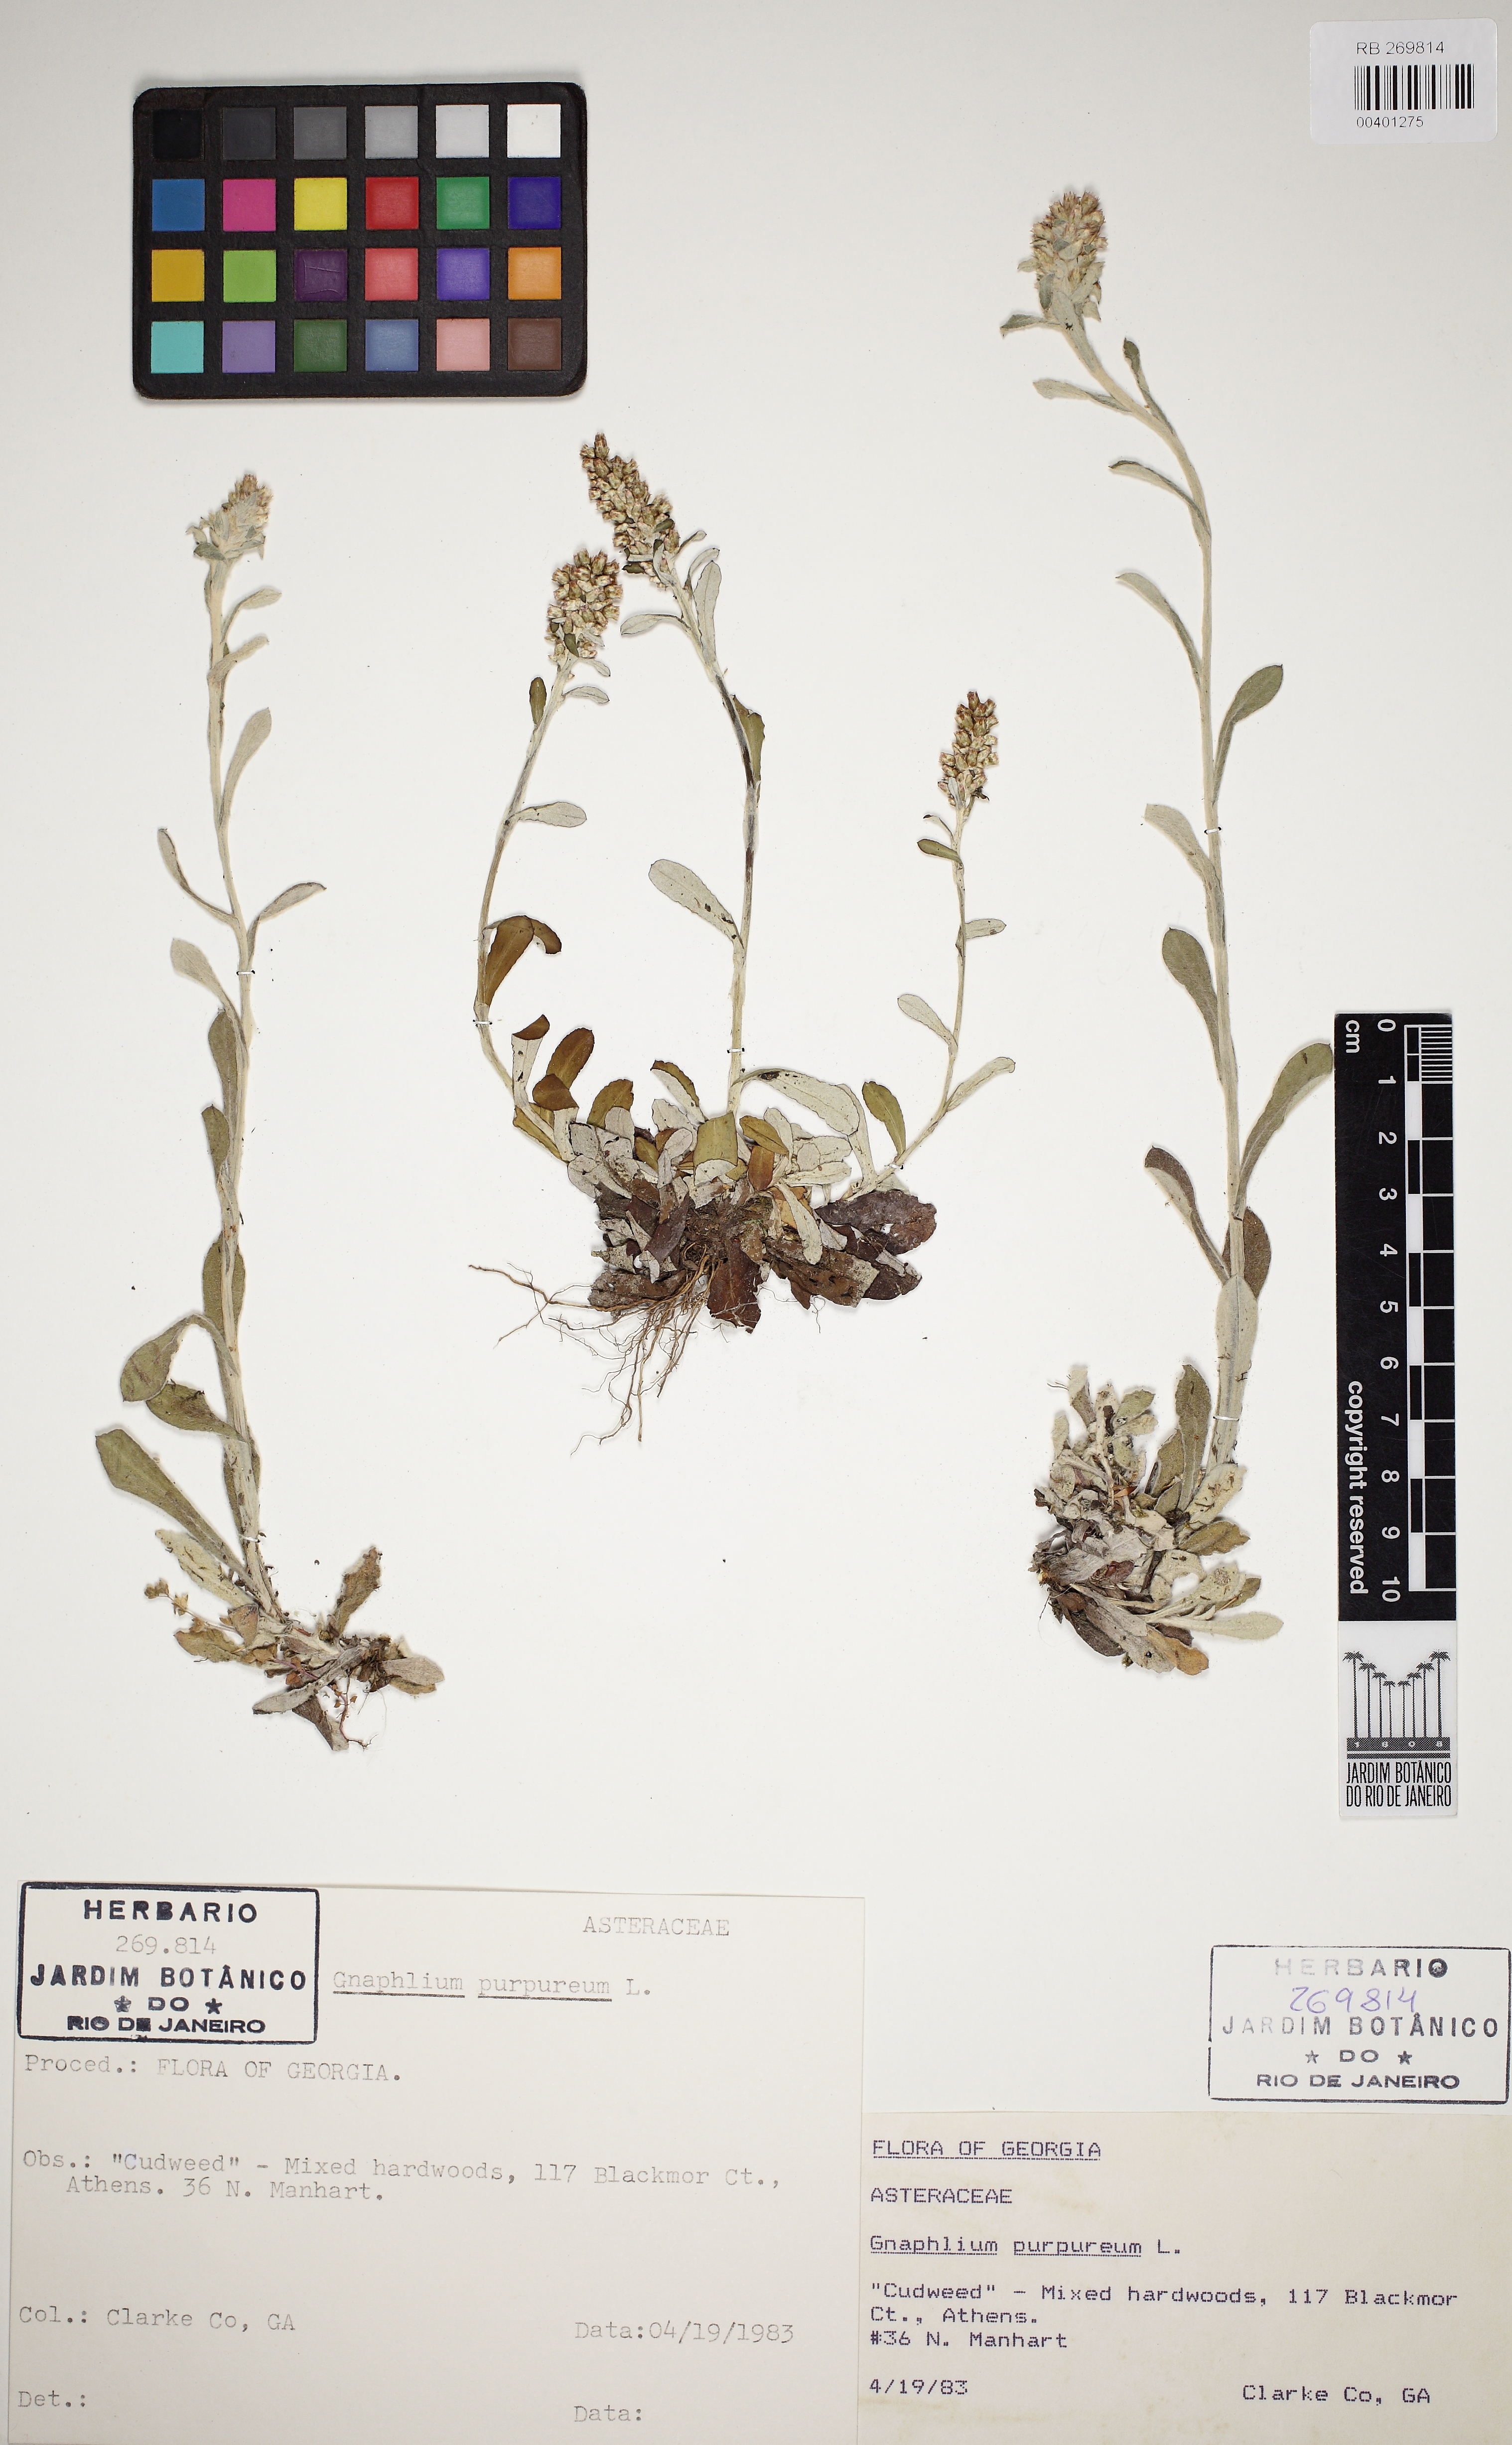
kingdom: Plantae
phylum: Tracheophyta
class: Magnoliopsida
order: Asterales
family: Asteraceae
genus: Pseudognaphalium
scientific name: Pseudognaphalium
